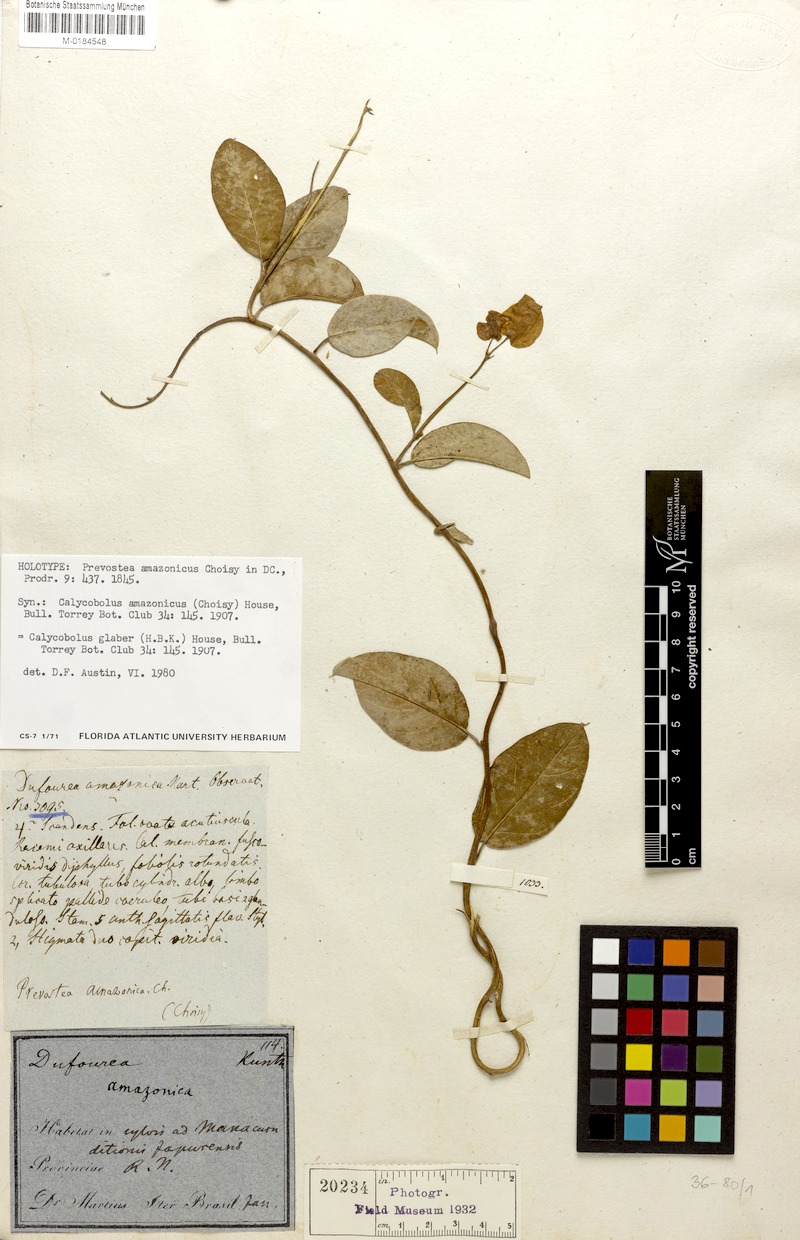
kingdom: Plantae
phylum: Tracheophyta
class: Magnoliopsida
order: Solanales
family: Convolvulaceae
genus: Calycobolus
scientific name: Calycobolus glaber
